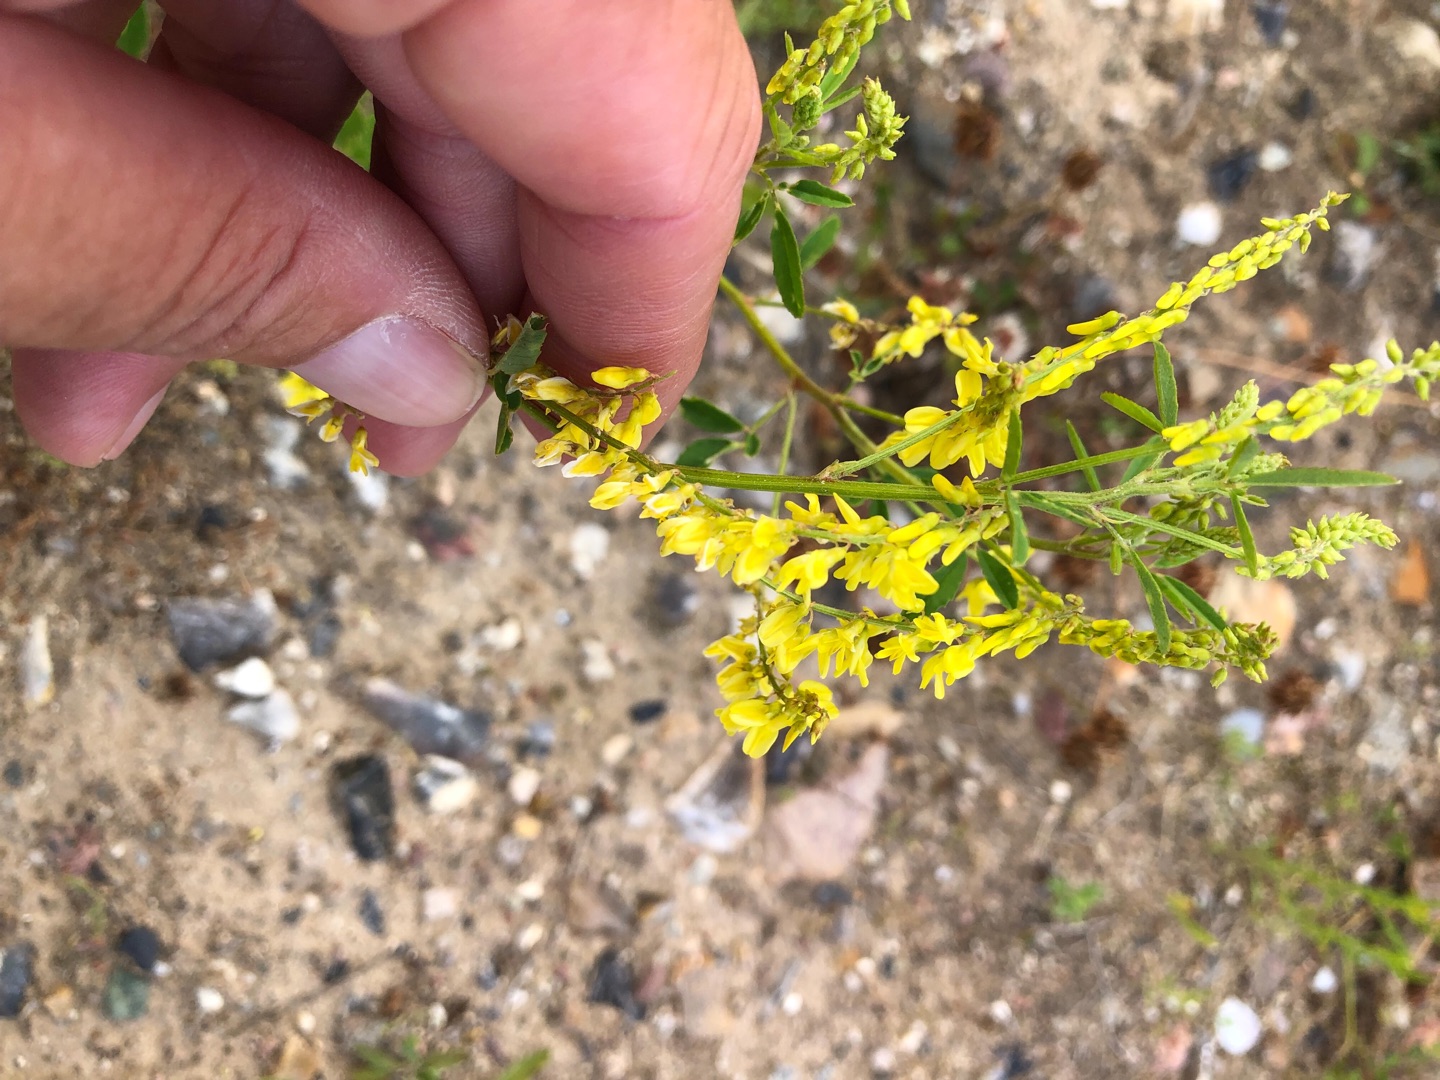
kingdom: Plantae
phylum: Tracheophyta
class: Magnoliopsida
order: Fabales
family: Fabaceae
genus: Melilotus
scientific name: Melilotus officinalis
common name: Mark-stenkløver
